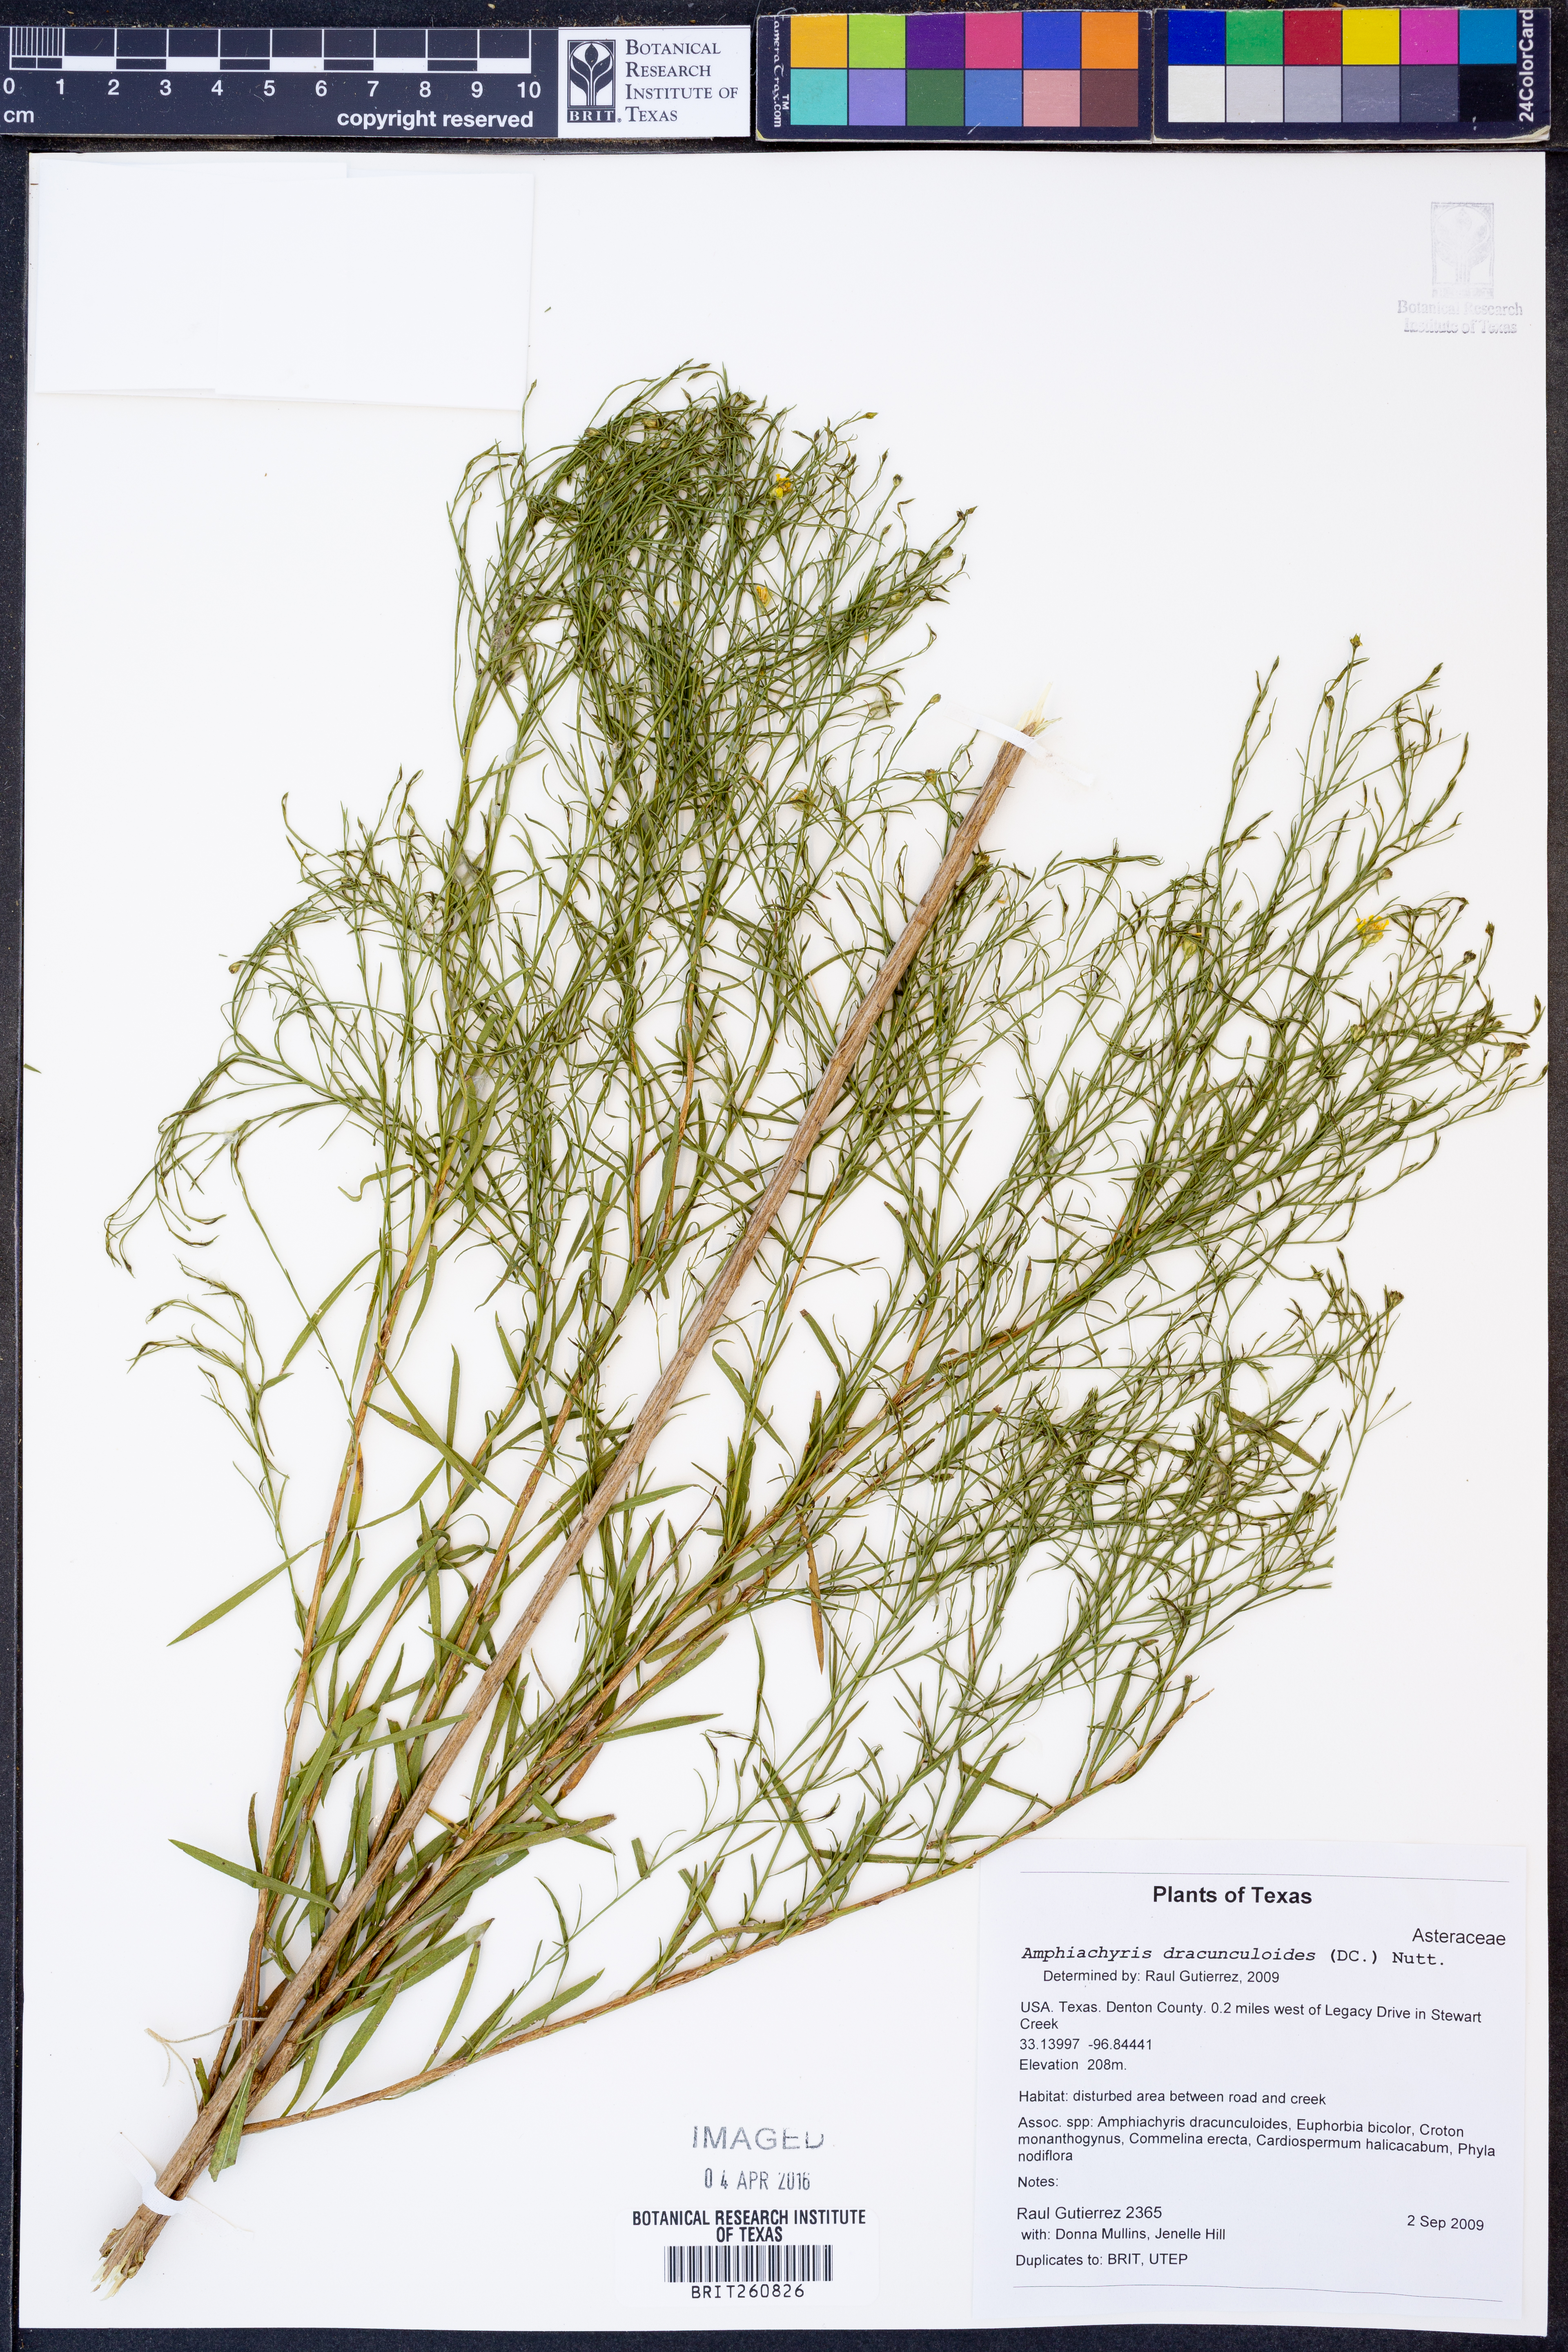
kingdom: Plantae
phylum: Tracheophyta
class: Magnoliopsida
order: Asterales
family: Asteraceae
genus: Amphiachyris
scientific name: Amphiachyris dracunculoides
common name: Broomweed
